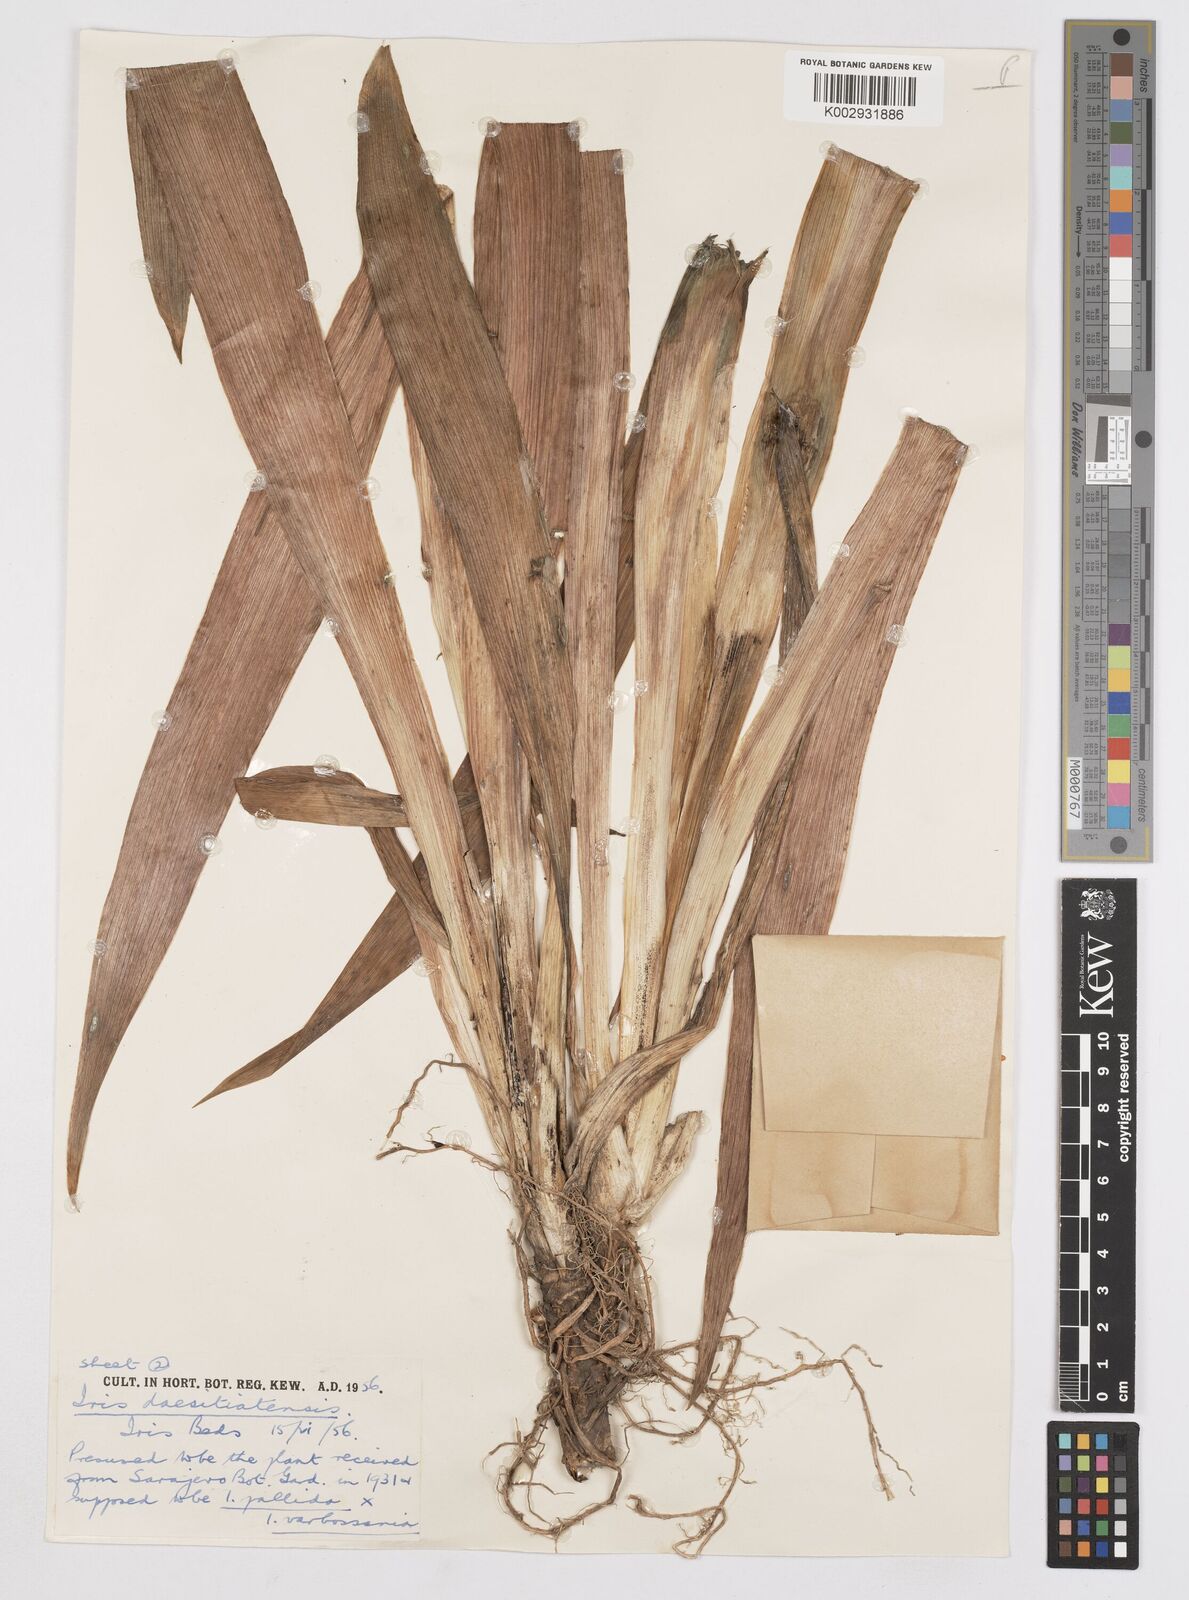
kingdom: Plantae
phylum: Tracheophyta
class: Liliopsida
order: Asparagales
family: Iridaceae
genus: Iris
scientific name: Iris germanica
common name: German iris
